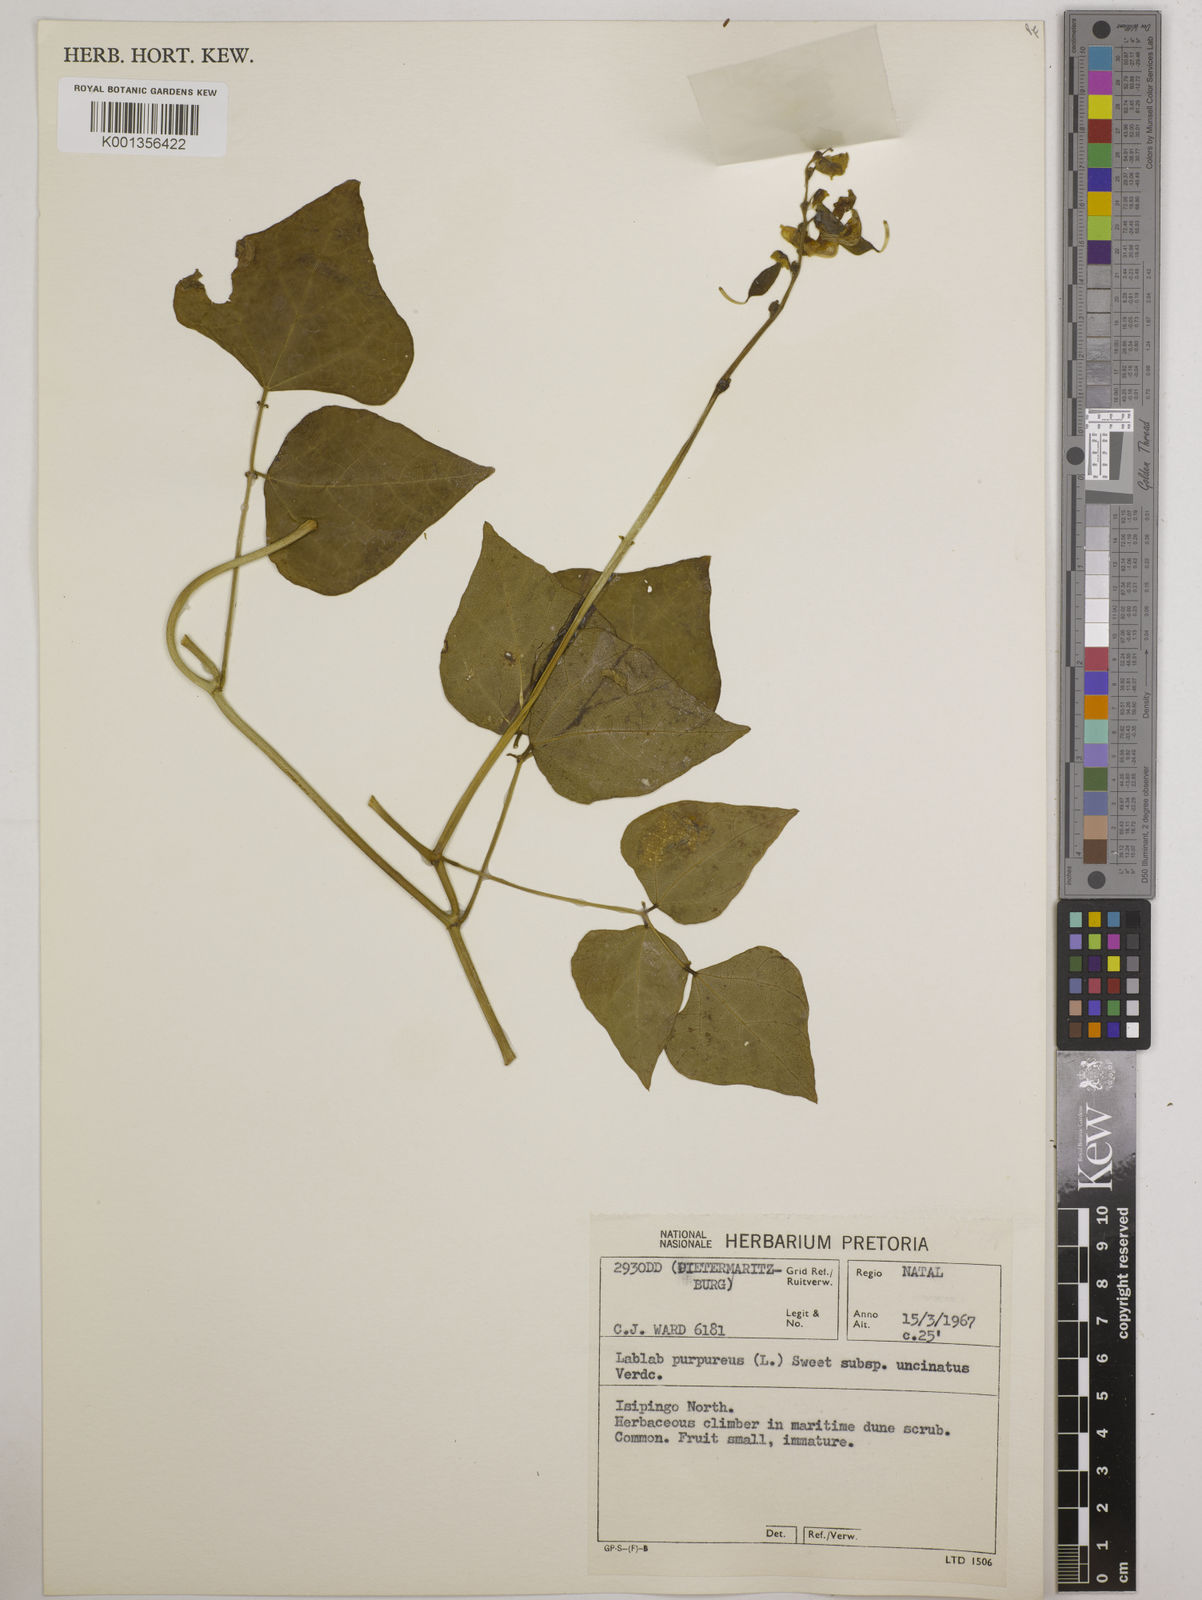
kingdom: Plantae
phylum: Tracheophyta
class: Magnoliopsida
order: Fabales
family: Fabaceae
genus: Lablab
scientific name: Lablab purpureus
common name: Lablab-bean
